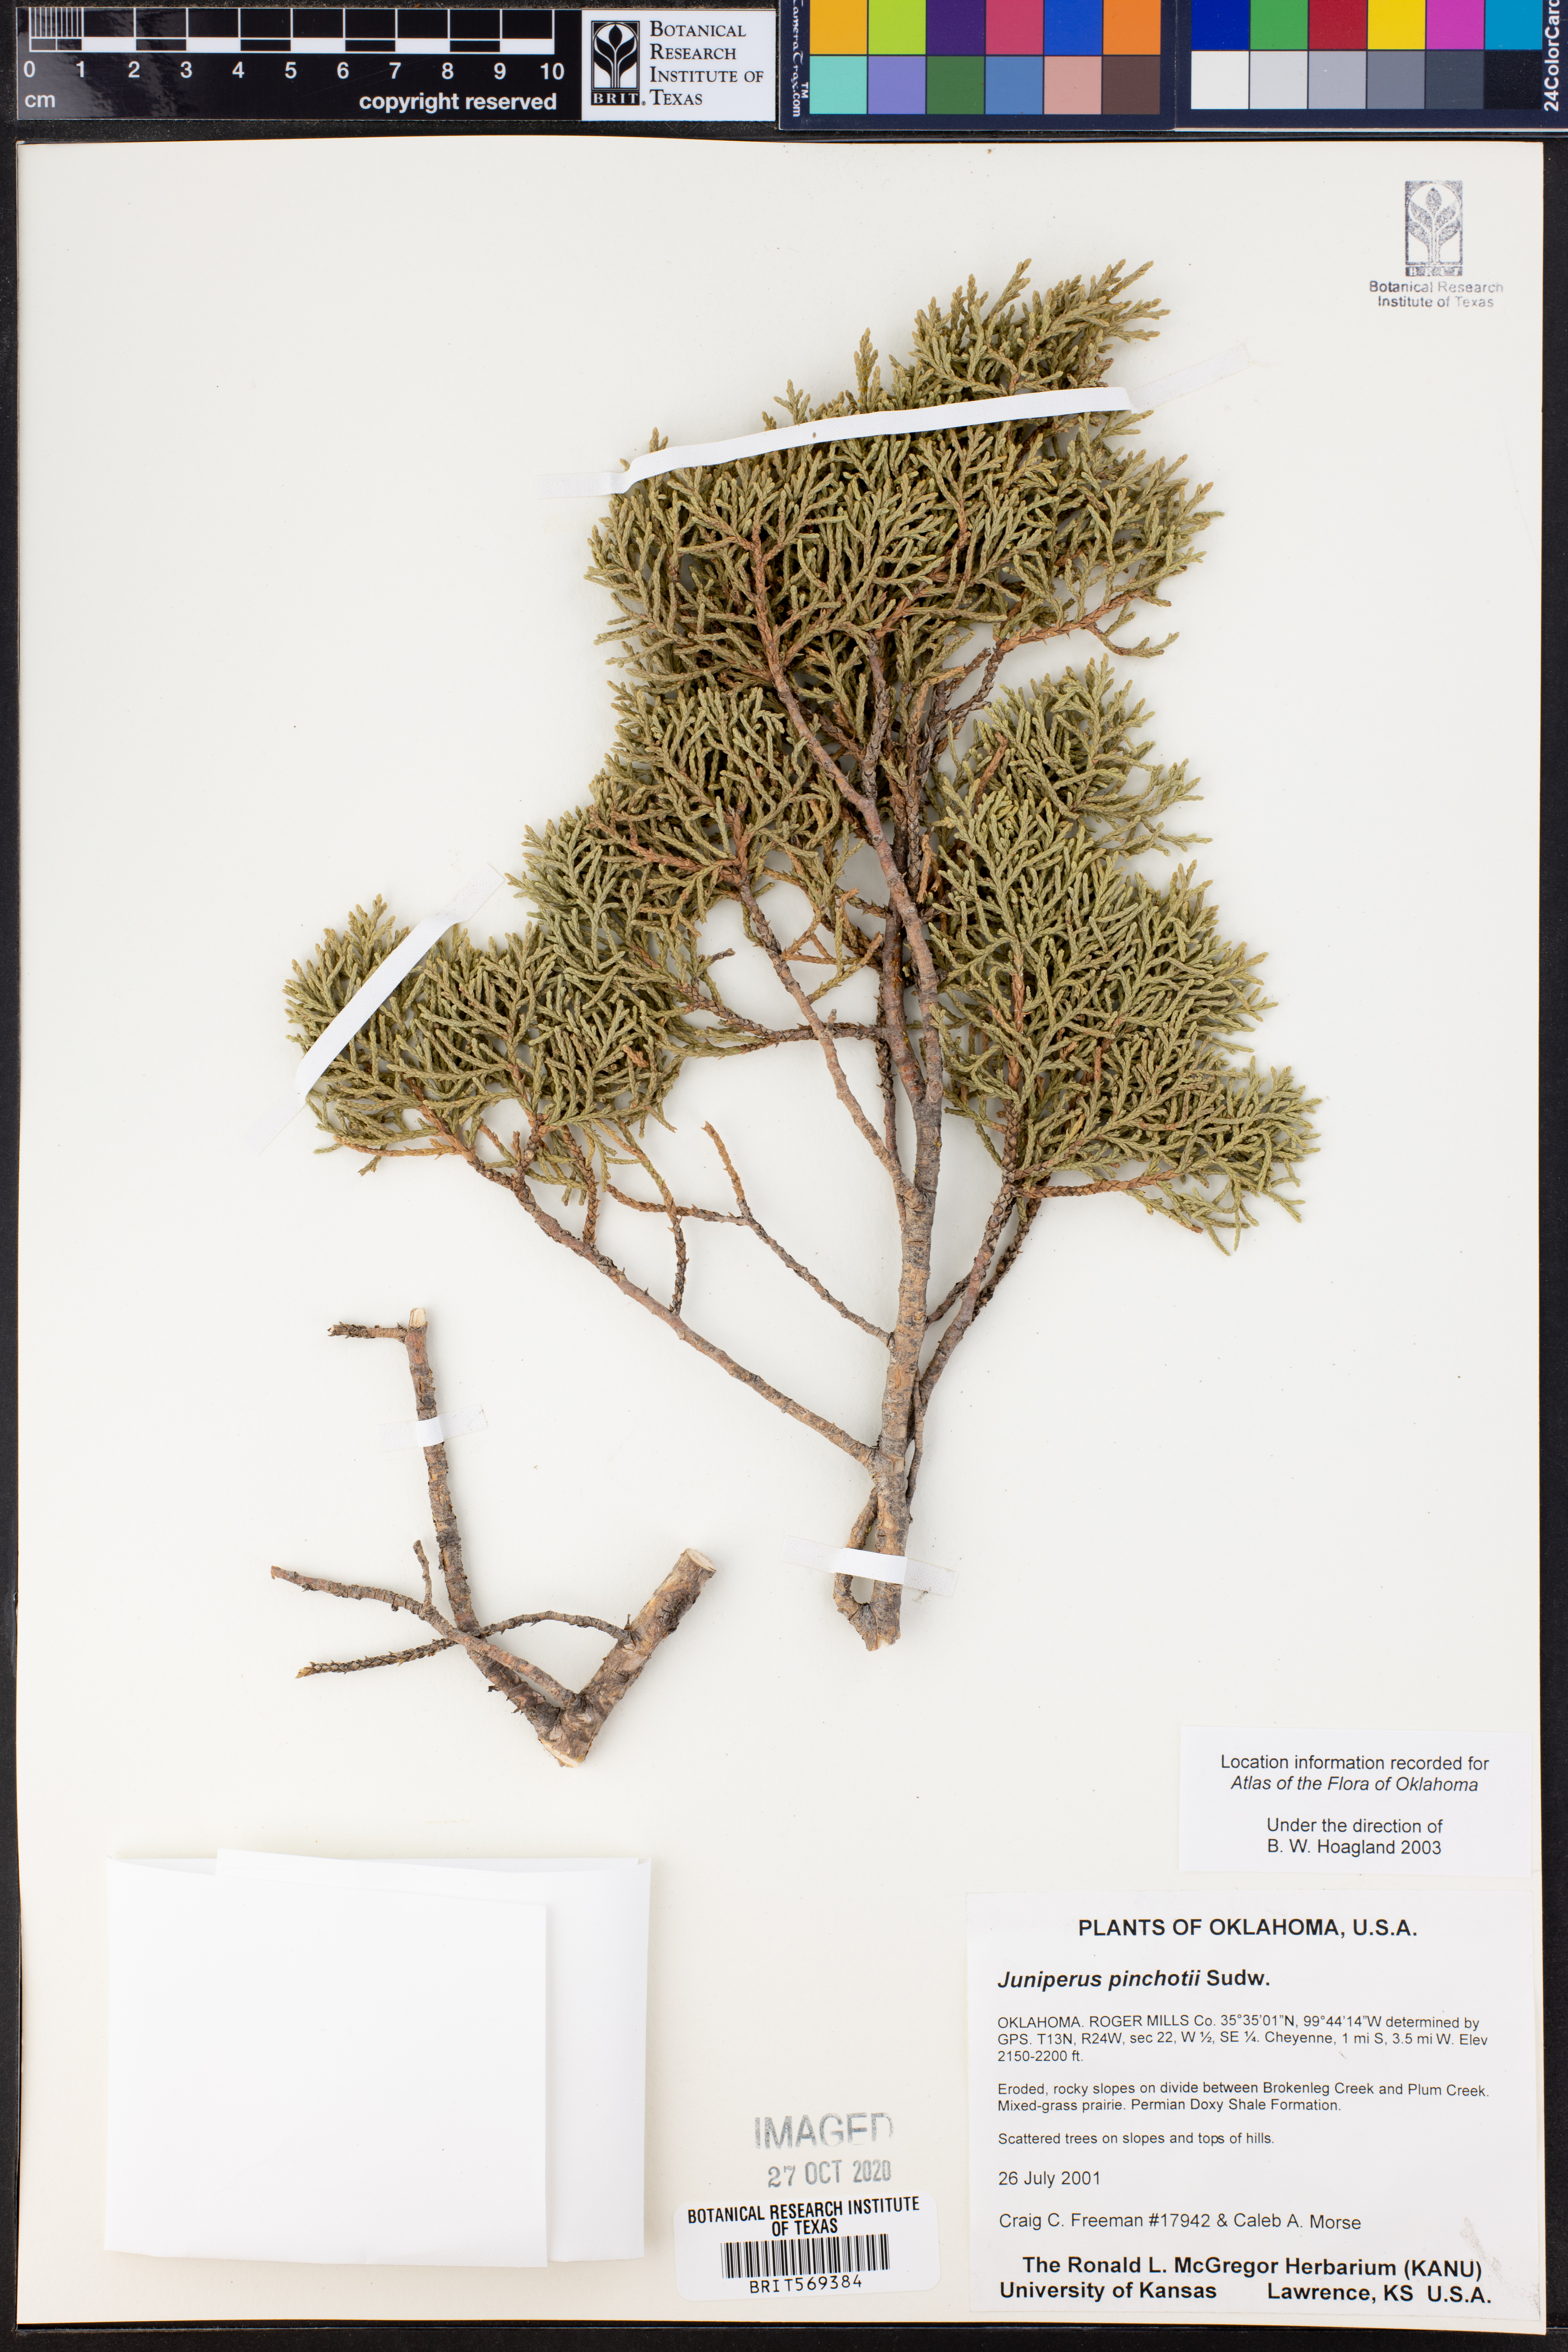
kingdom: Plantae
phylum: Tracheophyta
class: Pinopsida
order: Pinales
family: Cupressaceae
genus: Juniperus
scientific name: Juniperus pinchotii
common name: Pinchot juniper
